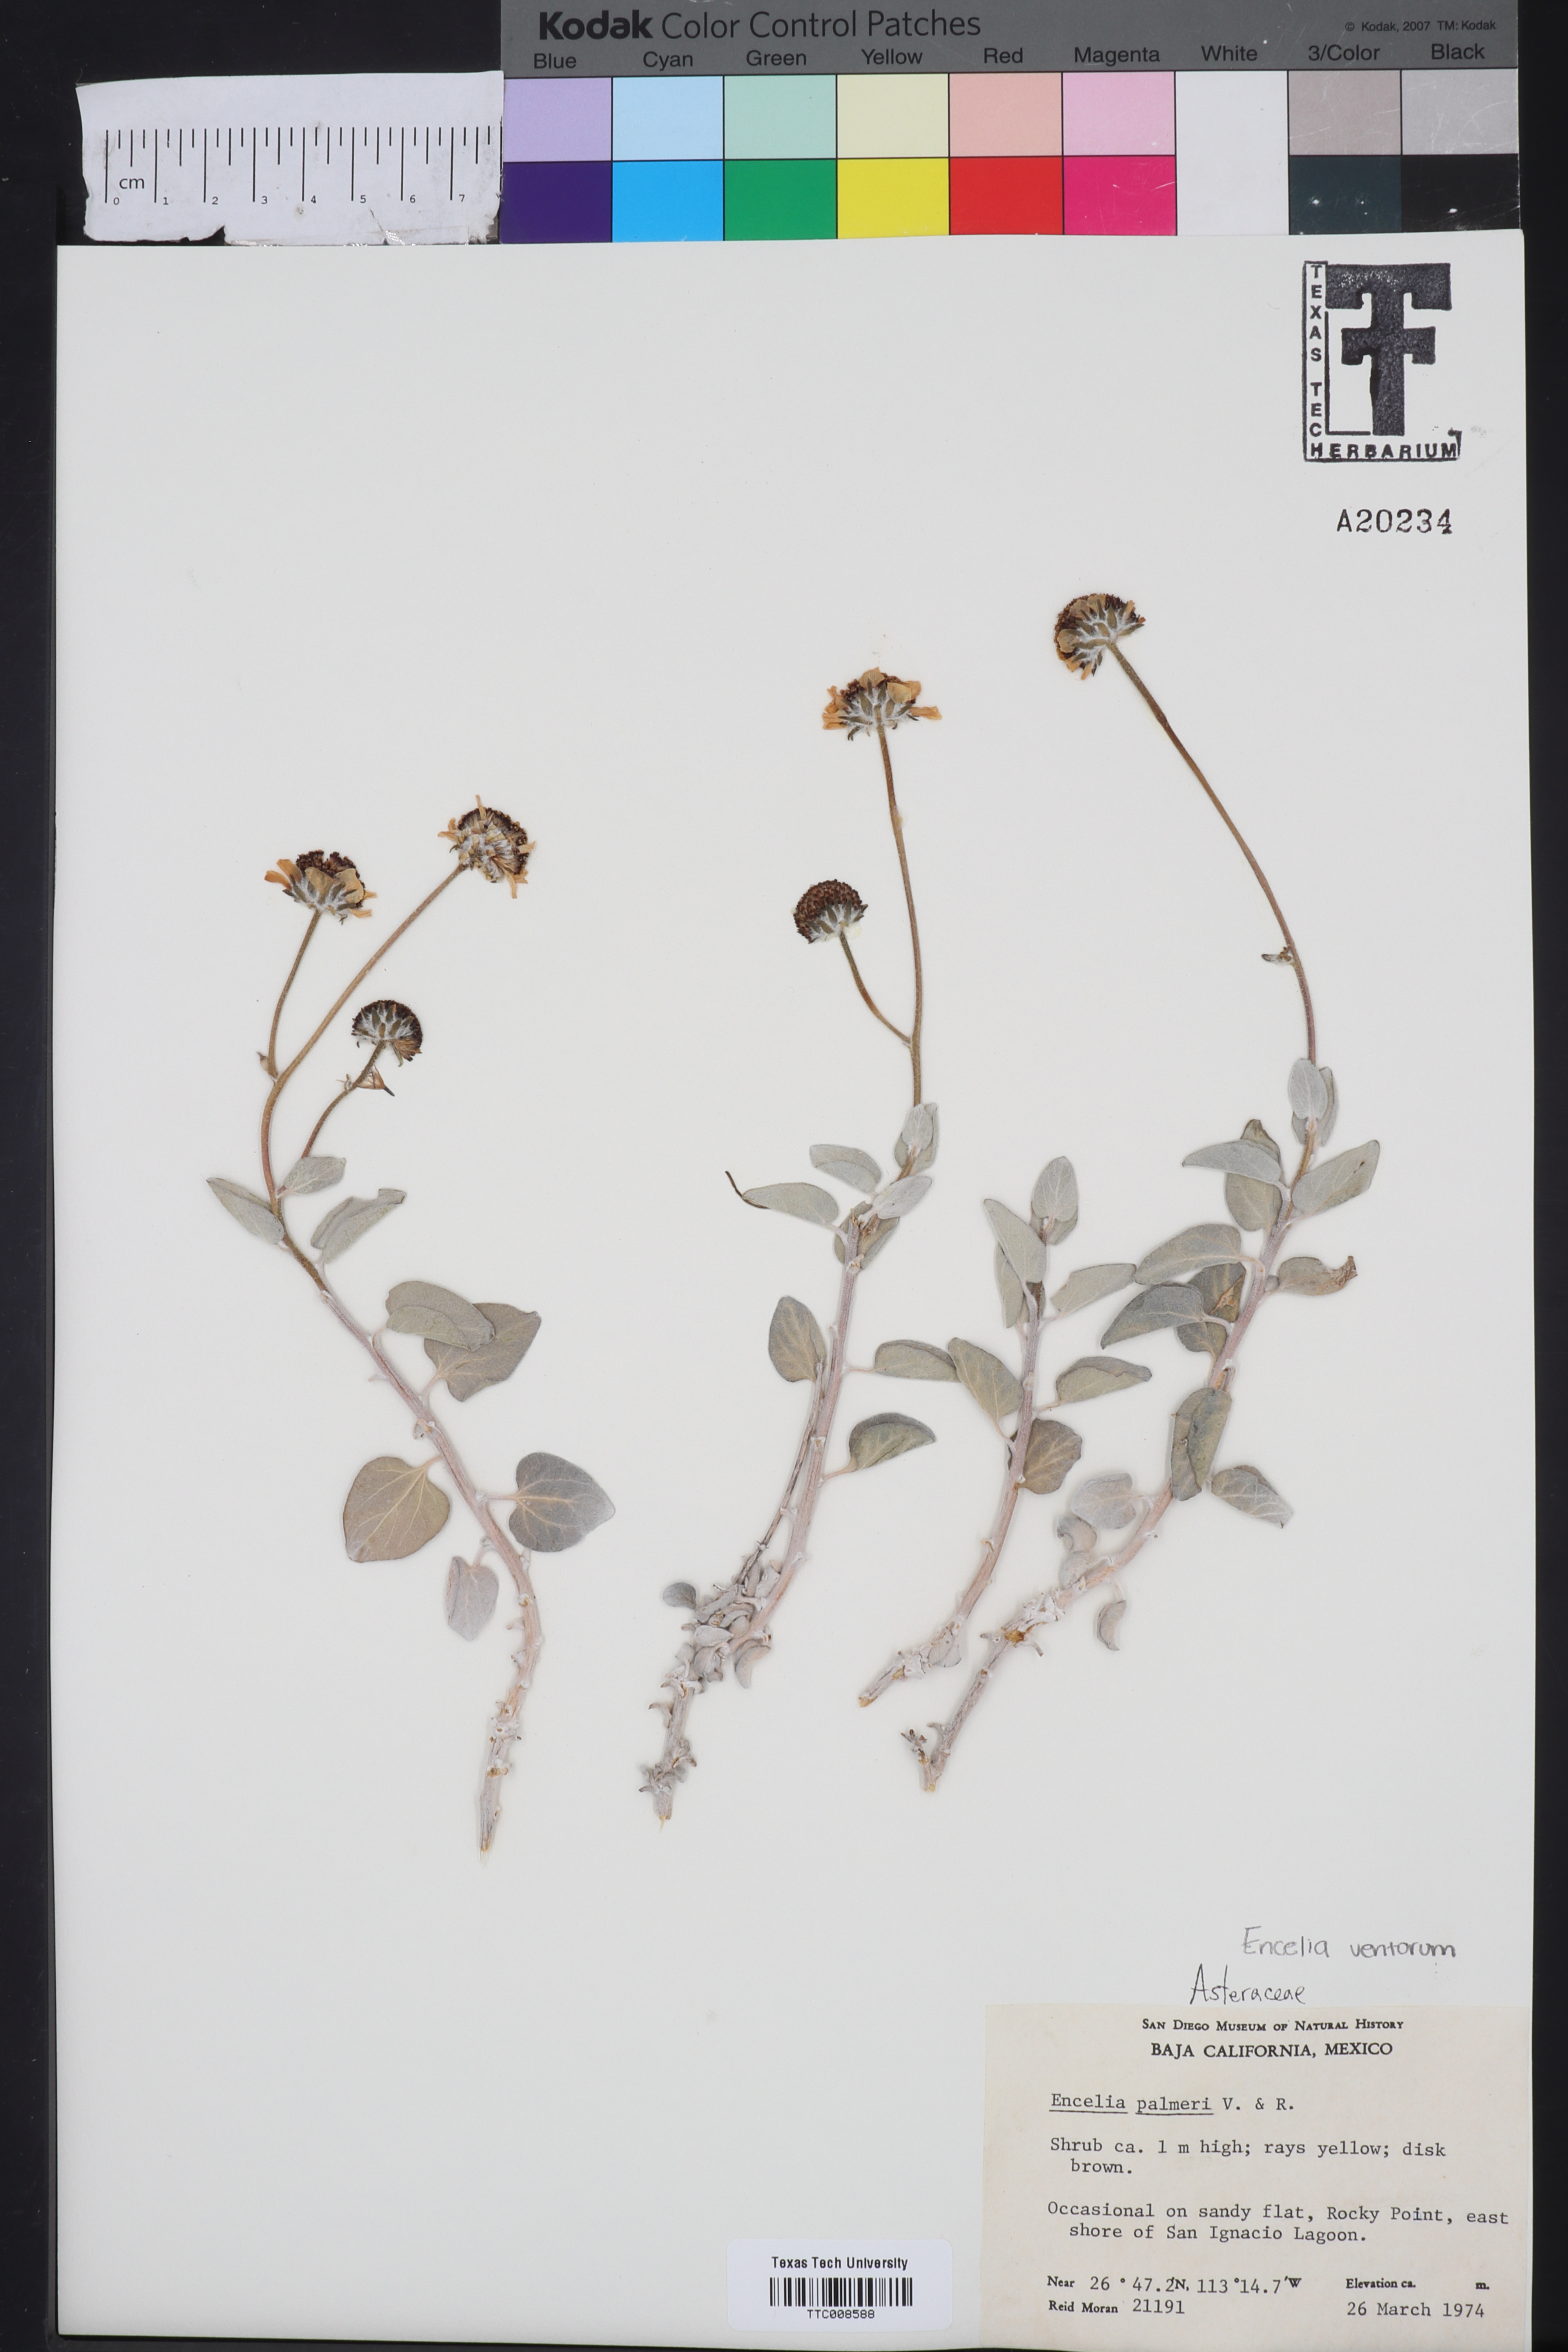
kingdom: Plantae
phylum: Tracheophyta
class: Magnoliopsida
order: Asterales
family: Asteraceae
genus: Encelia
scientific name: Encelia palmeri
